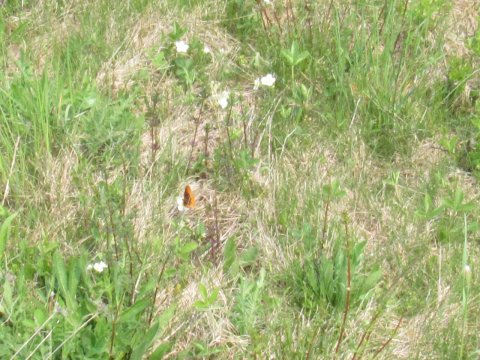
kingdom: Animalia
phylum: Arthropoda
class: Insecta
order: Lepidoptera
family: Nymphalidae
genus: Clossiana
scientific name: Clossiana toddi
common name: Meadow Fritillary
